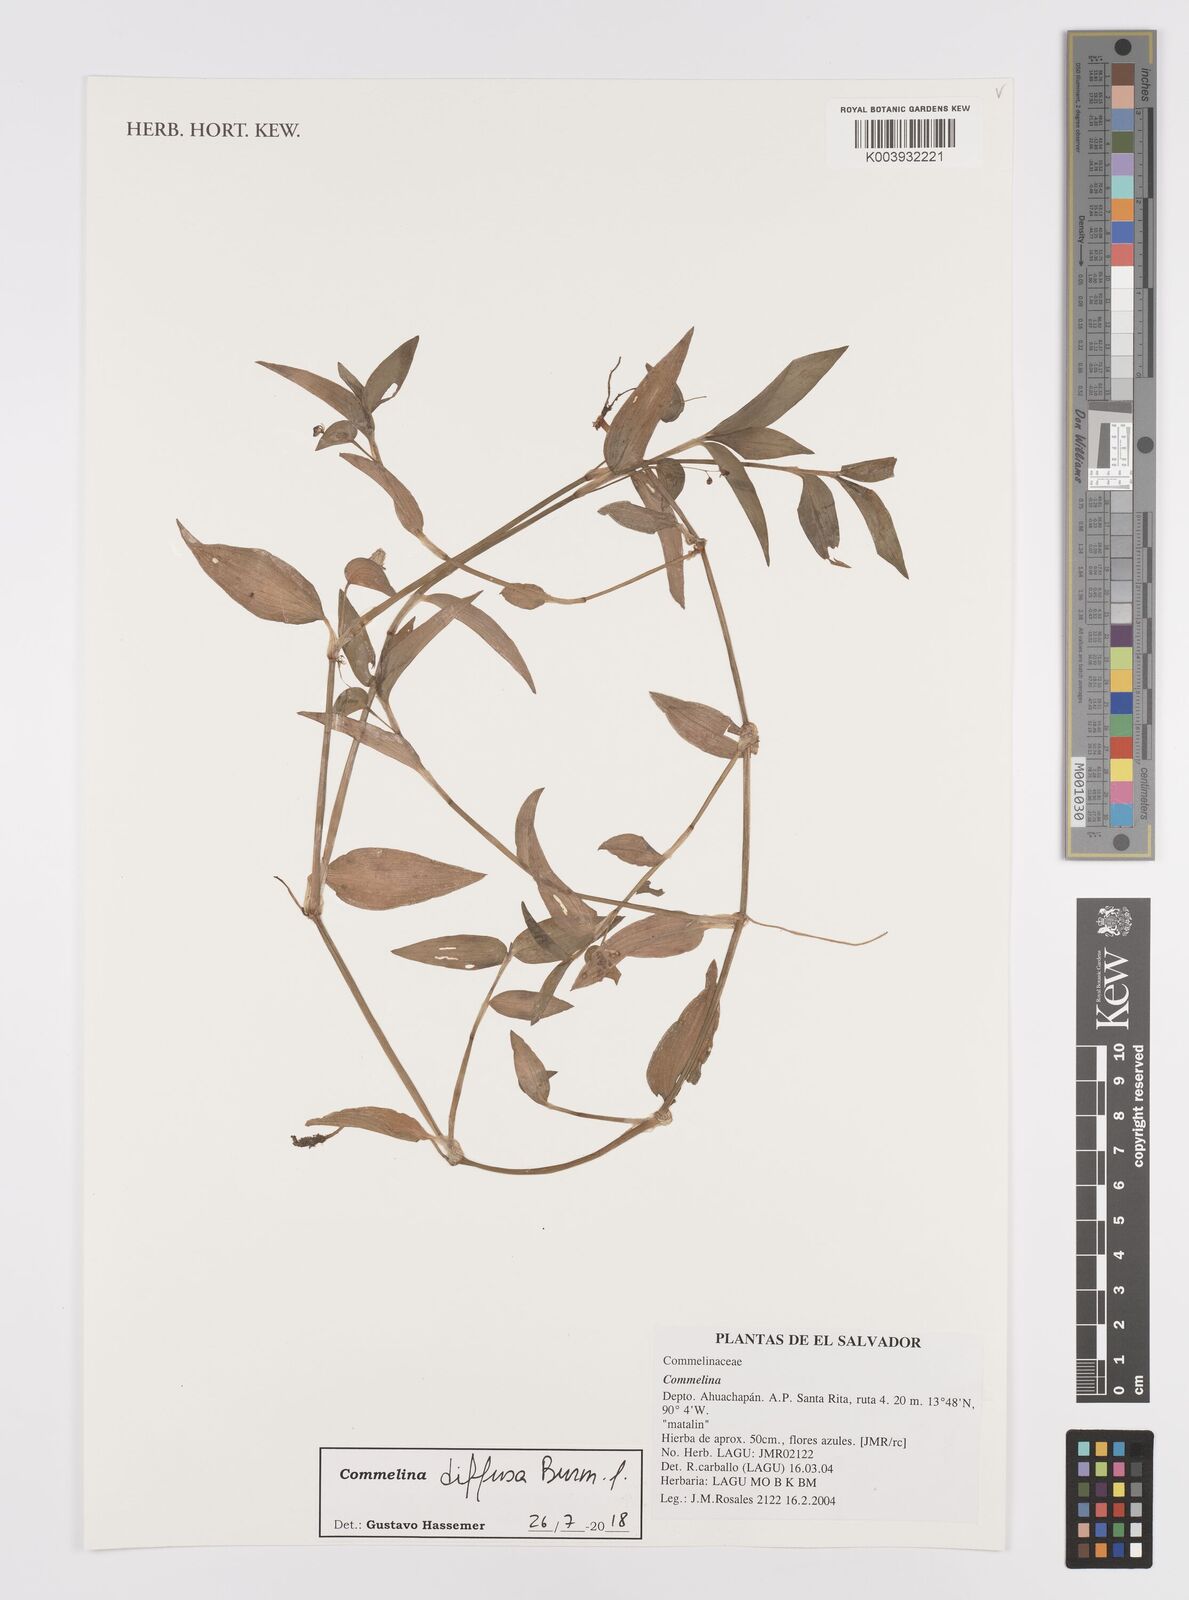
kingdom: Plantae
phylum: Tracheophyta
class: Liliopsida
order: Commelinales
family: Commelinaceae
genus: Commelina
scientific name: Commelina diffusa
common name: Climbing dayflower
